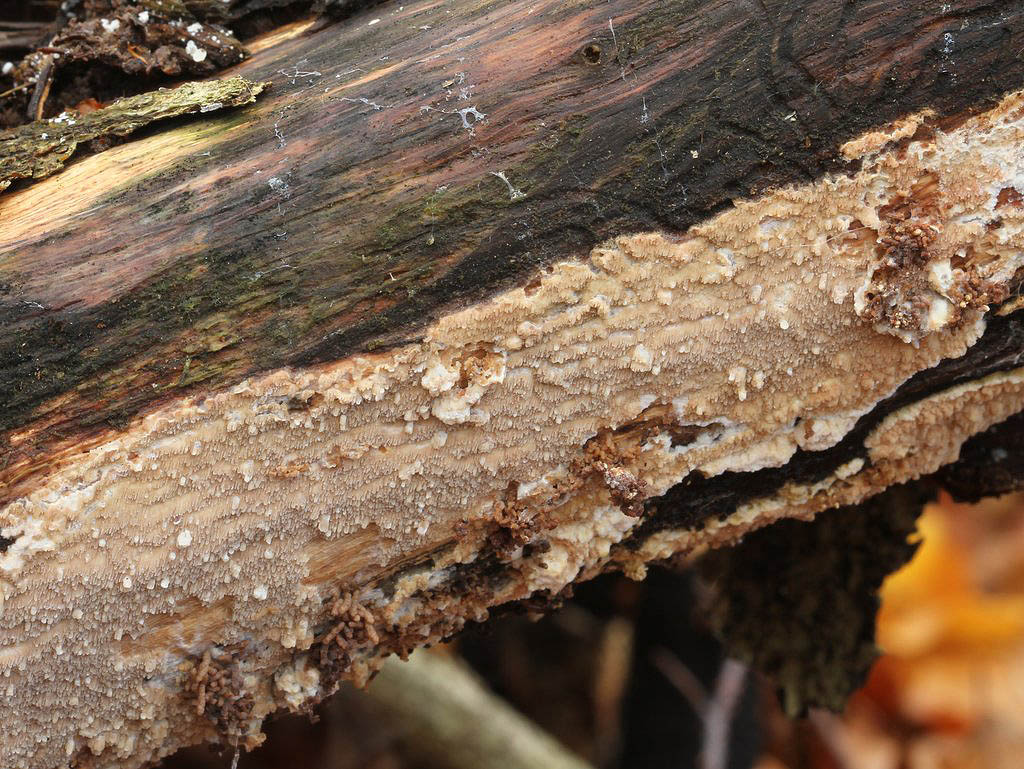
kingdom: Fungi
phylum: Basidiomycota
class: Agaricomycetes
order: Polyporales
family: Meruliaceae
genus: Phlebia
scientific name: Phlebia rufa
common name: ege-åresvamp
